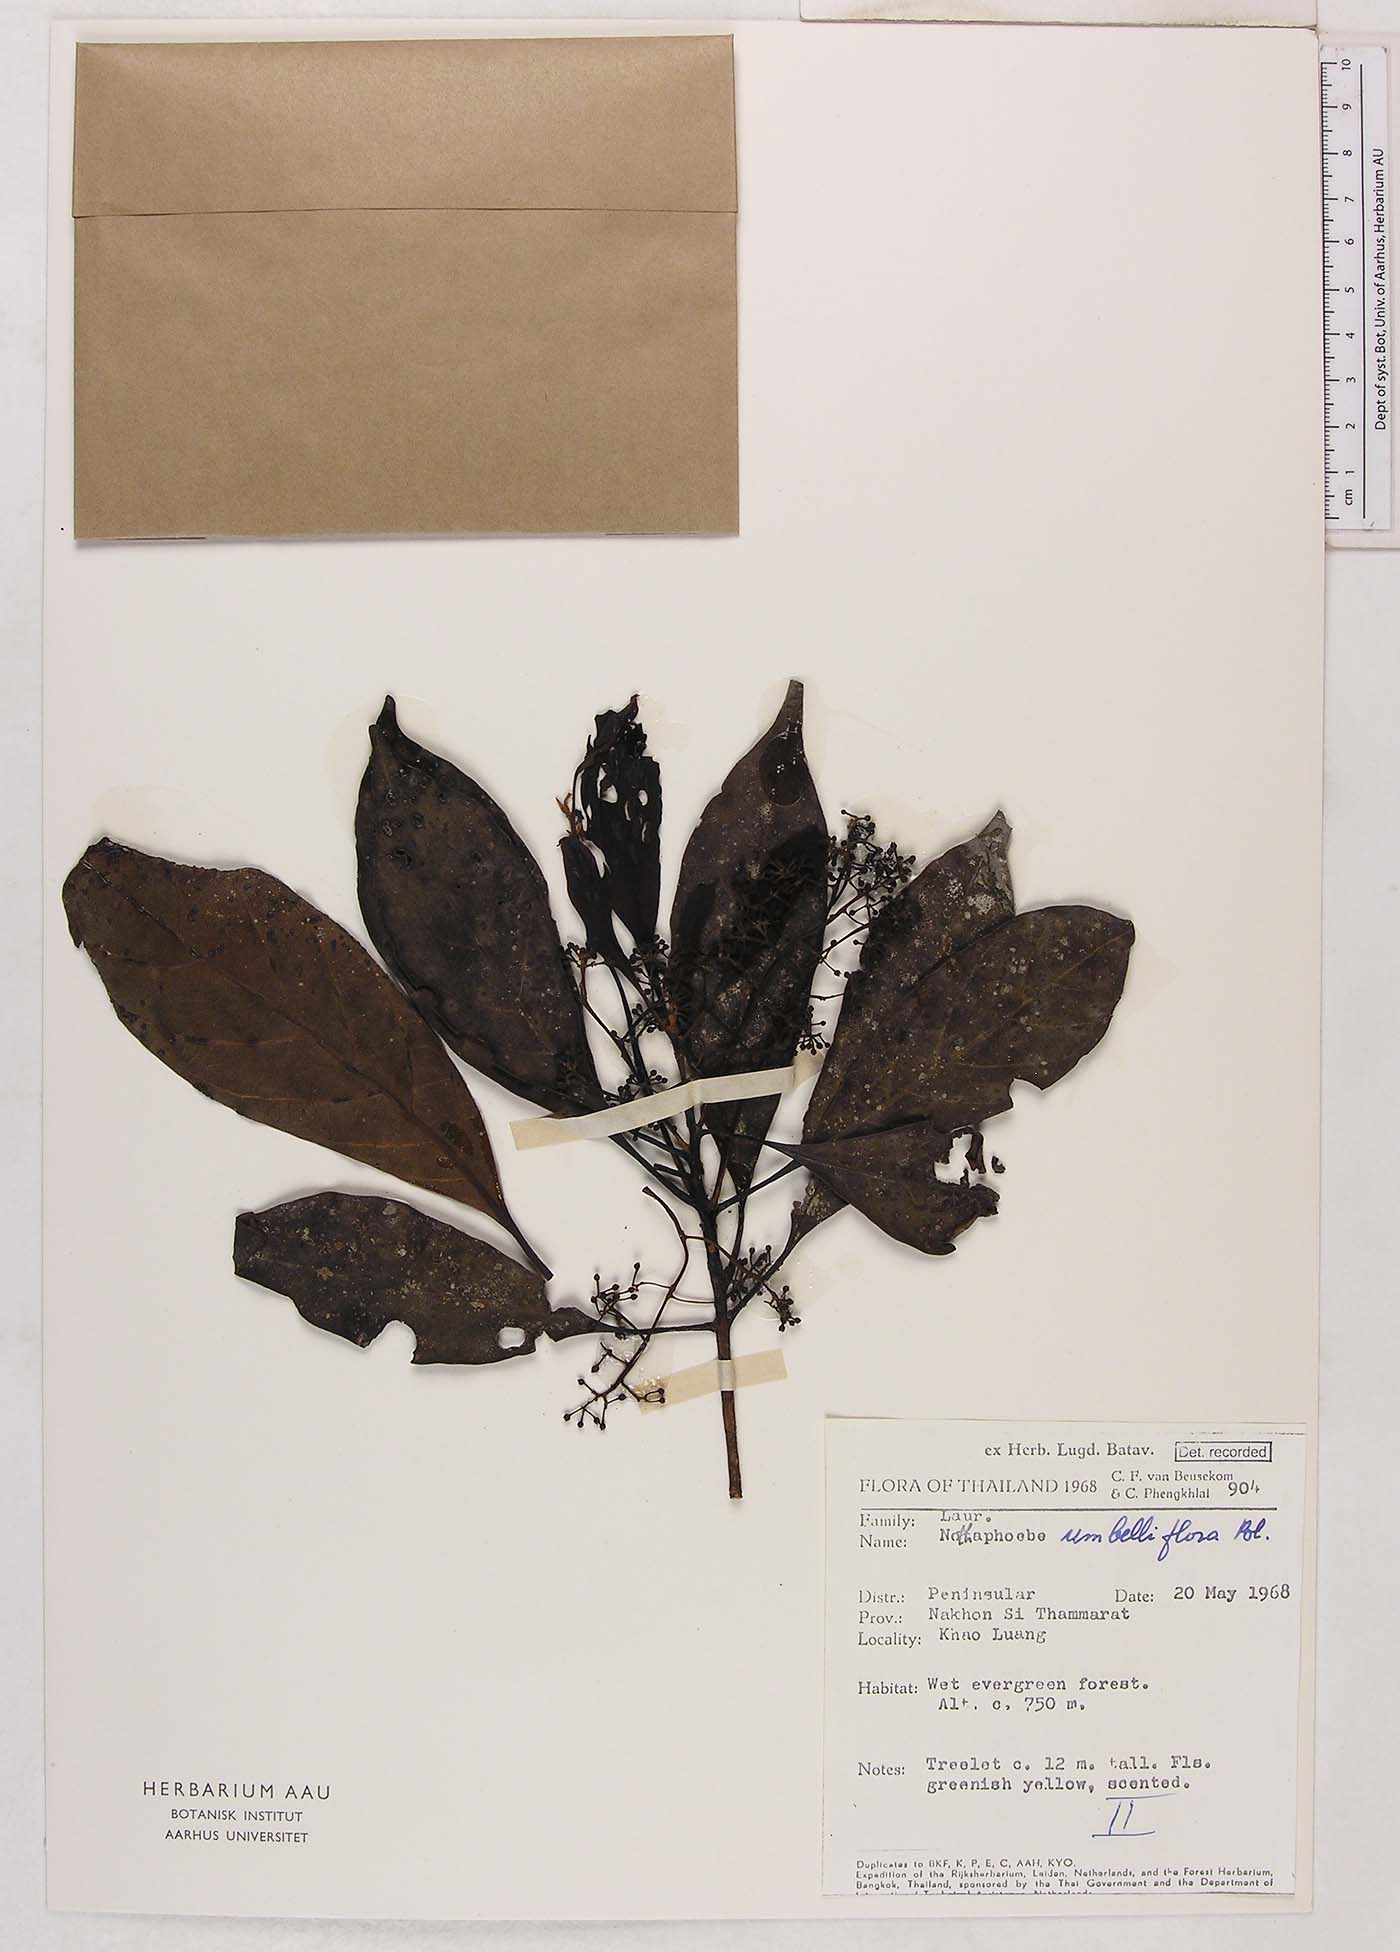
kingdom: Plantae
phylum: Tracheophyta
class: Magnoliopsida
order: Laurales
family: Lauraceae
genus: Nothaphoebe
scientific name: Nothaphoebe umbelliflora
